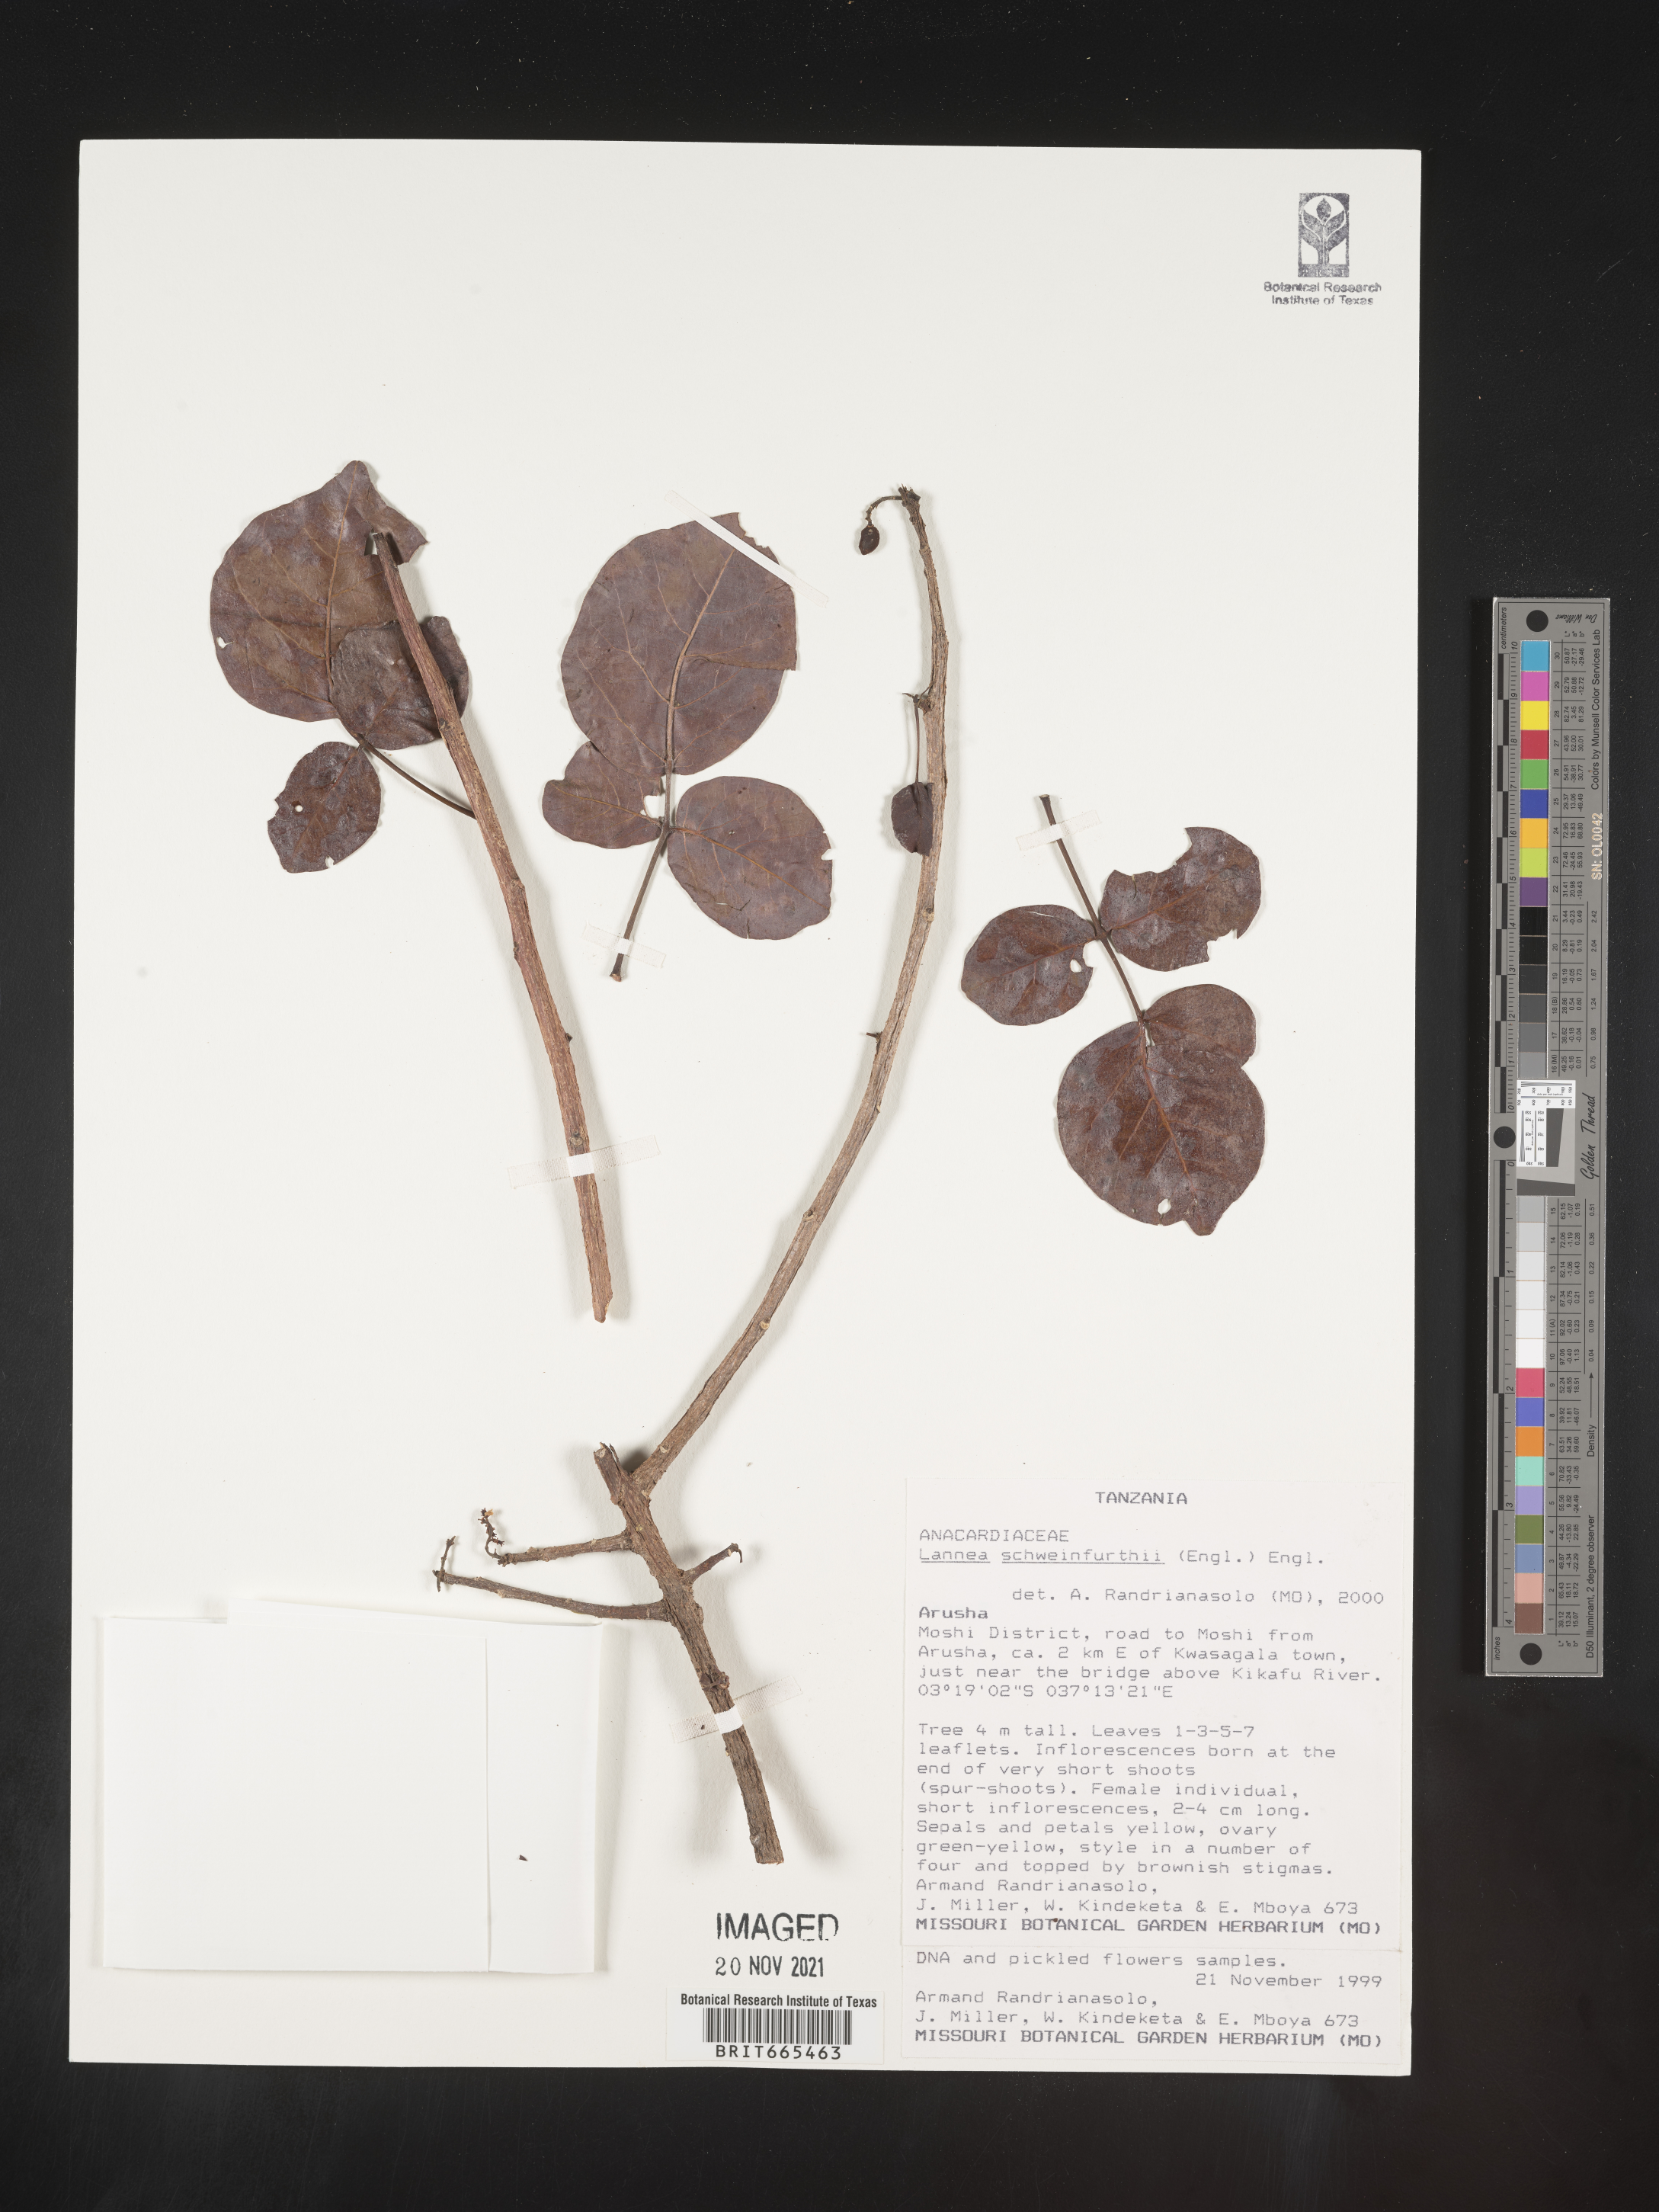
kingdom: Plantae
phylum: Tracheophyta
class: Magnoliopsida
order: Sapindales
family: Anacardiaceae
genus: Lannea
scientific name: Lannea
